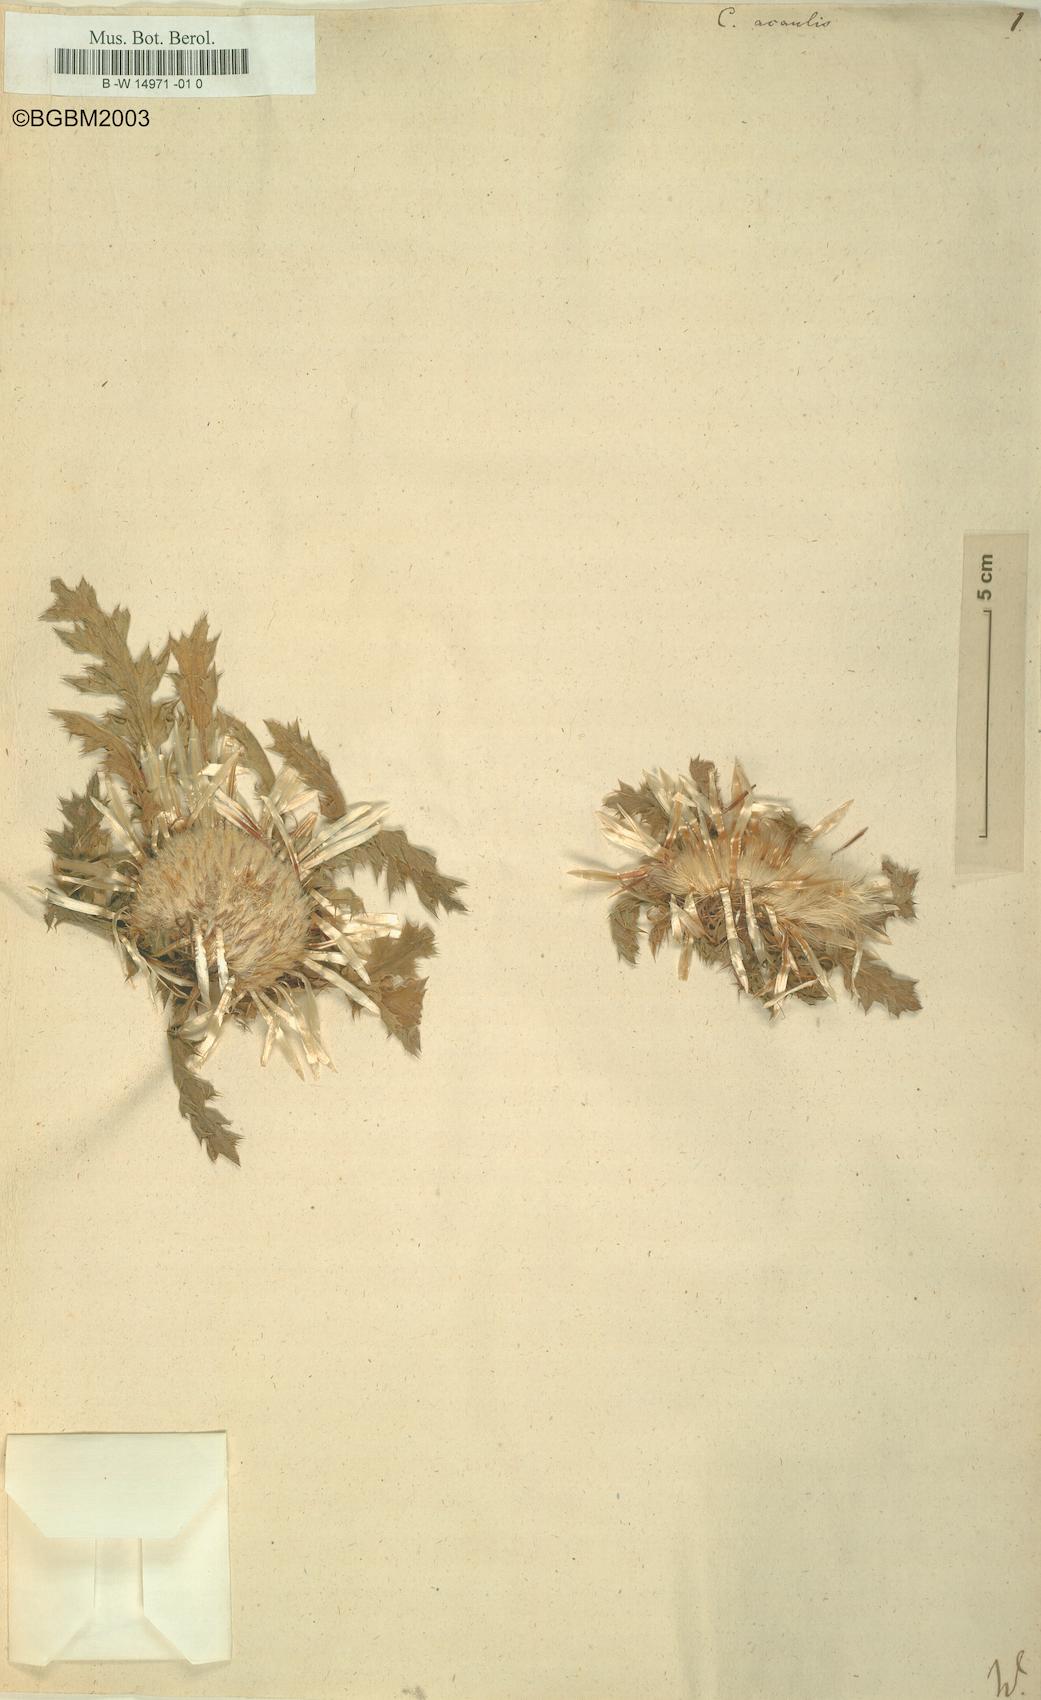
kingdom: Plantae
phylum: Tracheophyta
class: Magnoliopsida
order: Asterales
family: Asteraceae
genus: Carlina
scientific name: Carlina acaulis
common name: Stemless carline thistle
